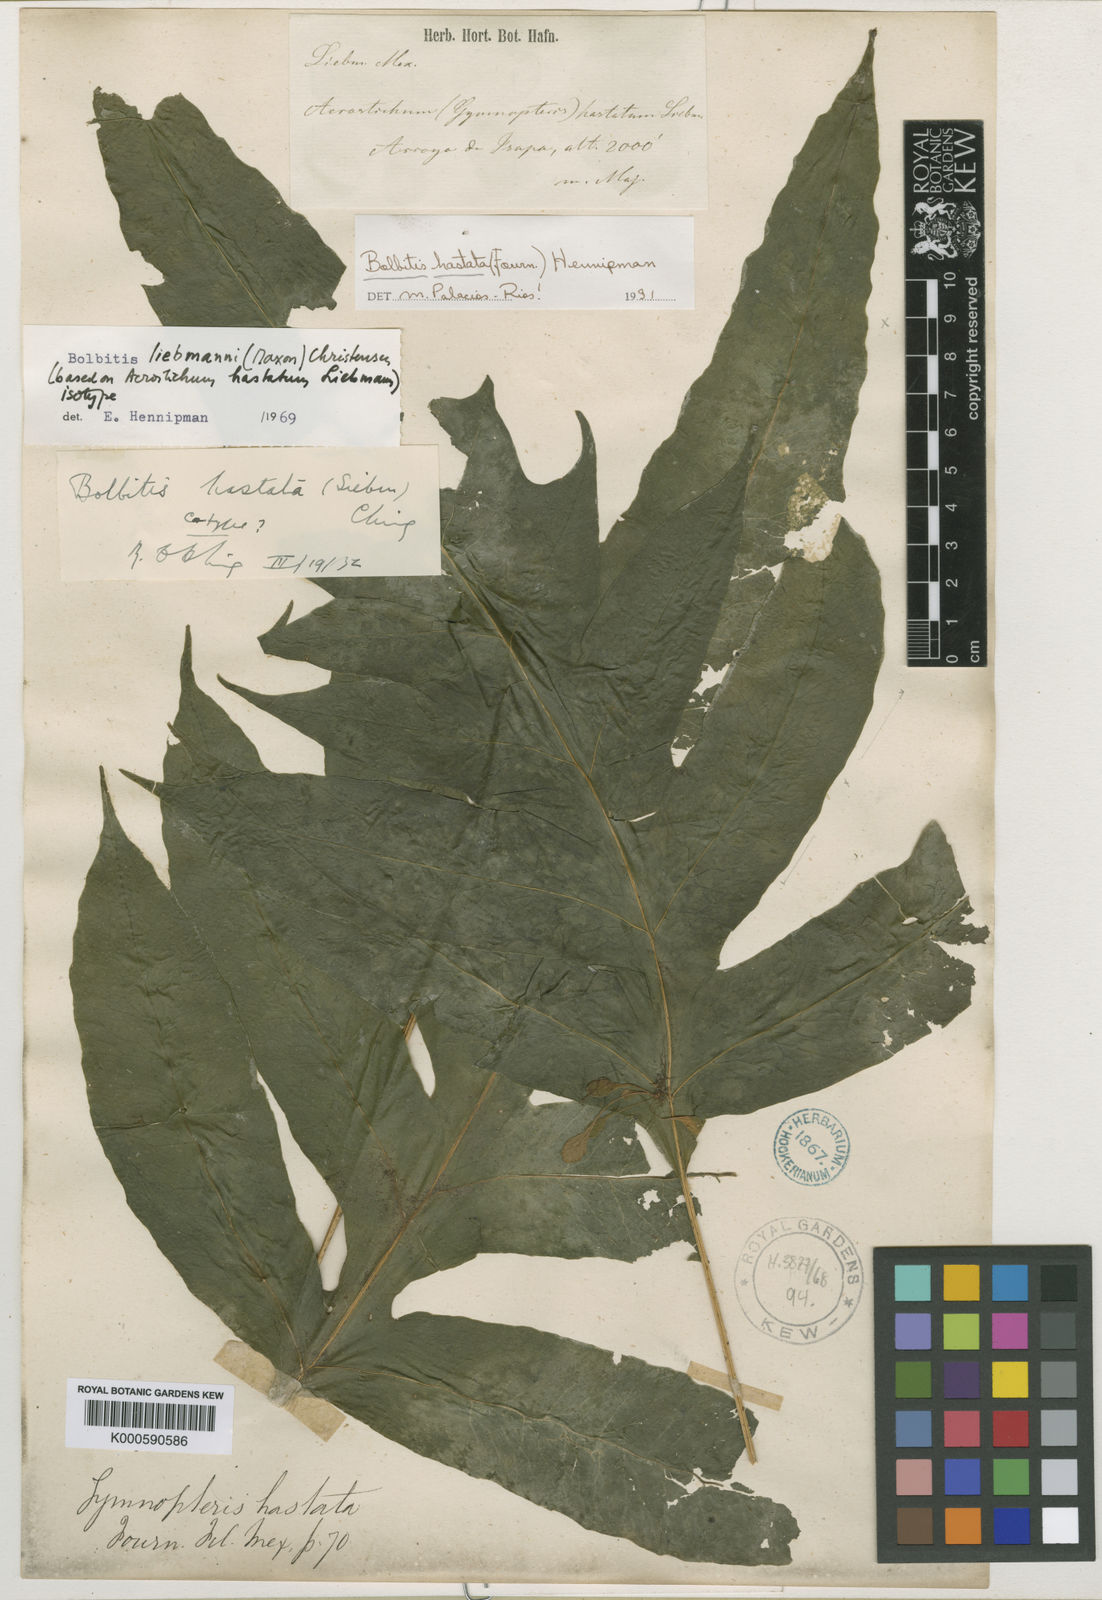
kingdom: Plantae
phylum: Tracheophyta
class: Polypodiopsida
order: Polypodiales
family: Dryopteridaceae
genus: Bolbitis
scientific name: Bolbitis hastata
